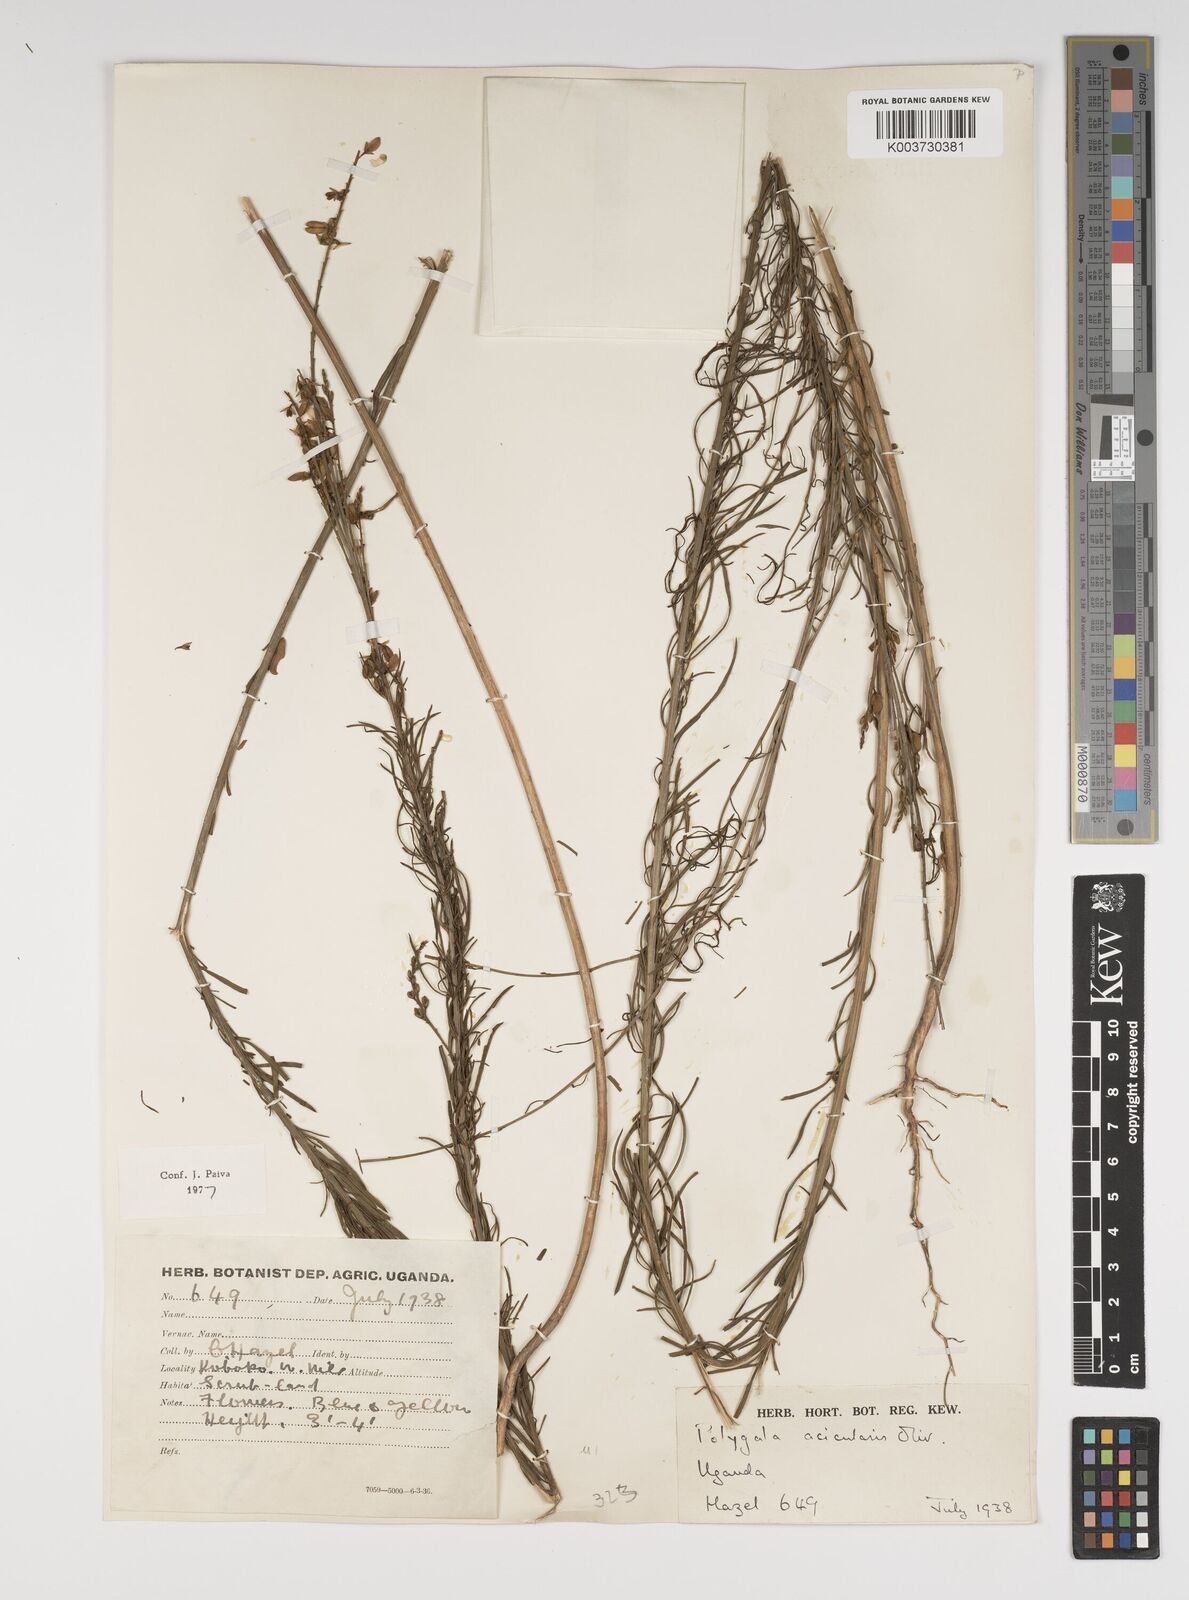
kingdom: Plantae
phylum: Tracheophyta
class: Magnoliopsida
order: Fabales
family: Polygalaceae
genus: Polygala
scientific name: Polygala acicularis
